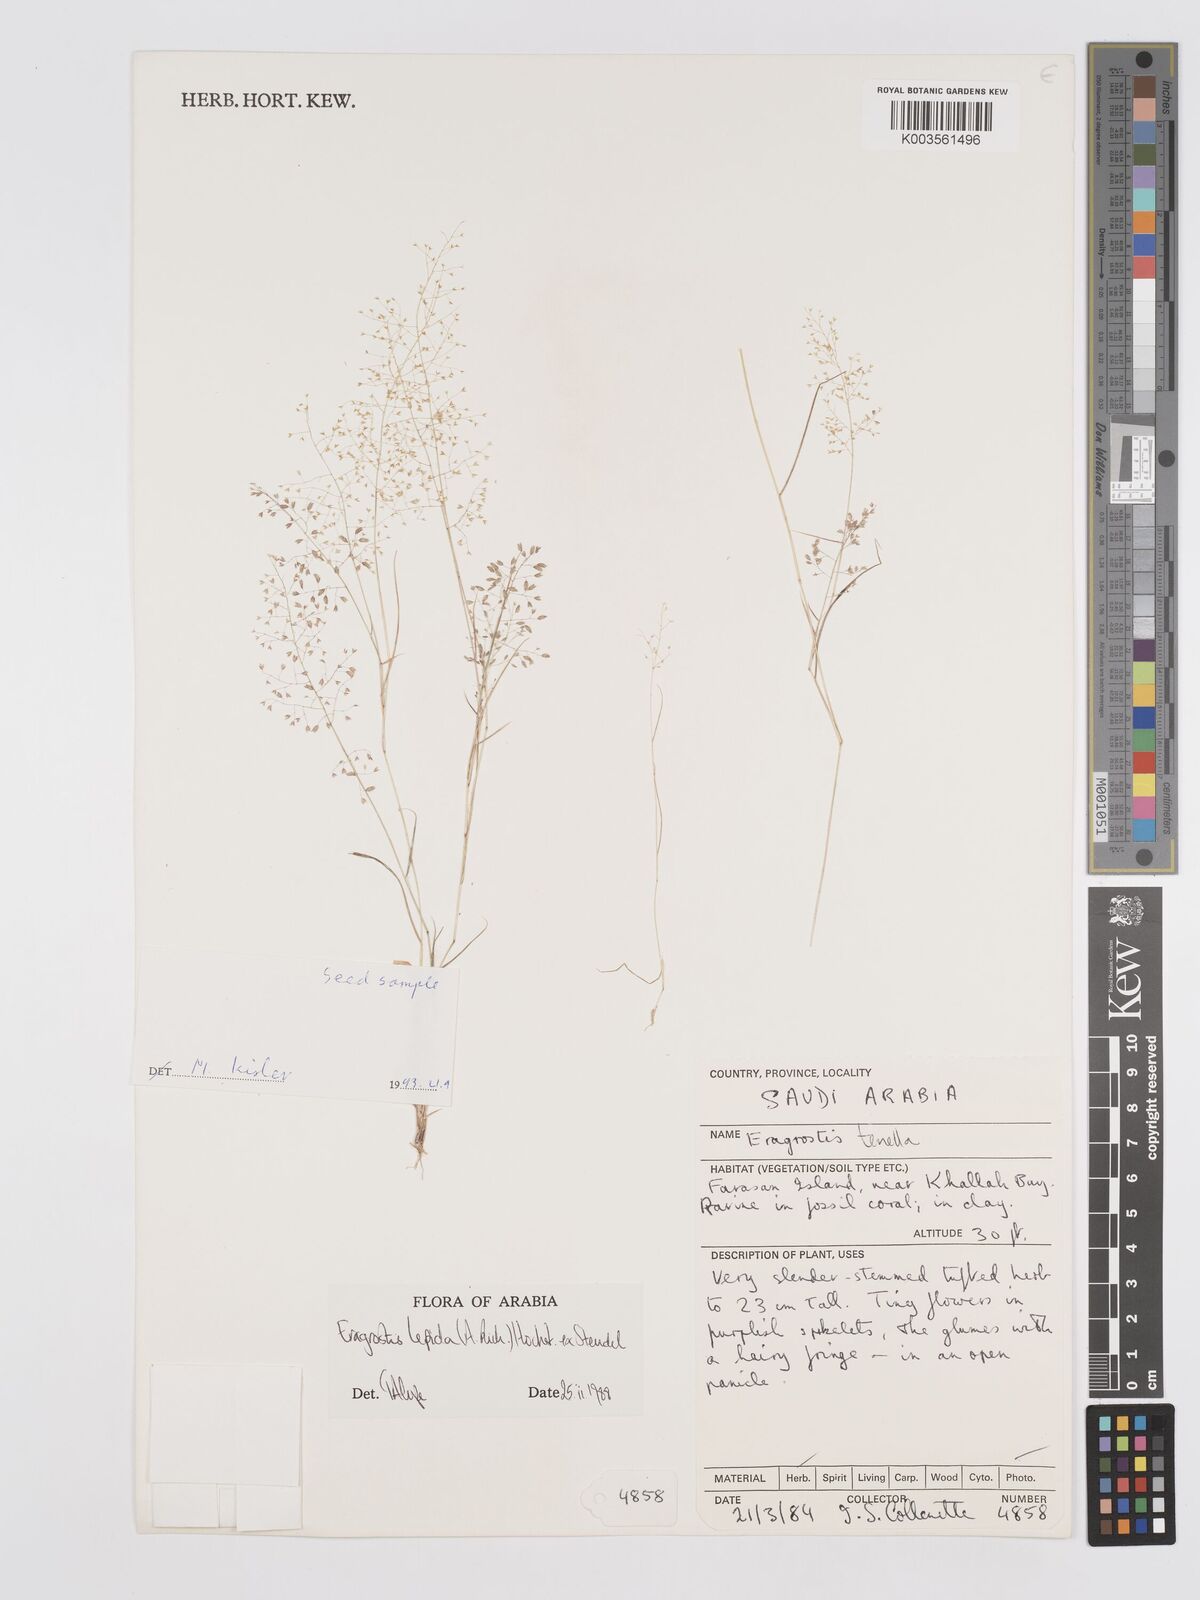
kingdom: Plantae
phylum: Tracheophyta
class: Liliopsida
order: Poales
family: Poaceae
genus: Eragrostis
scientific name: Eragrostis lepida
